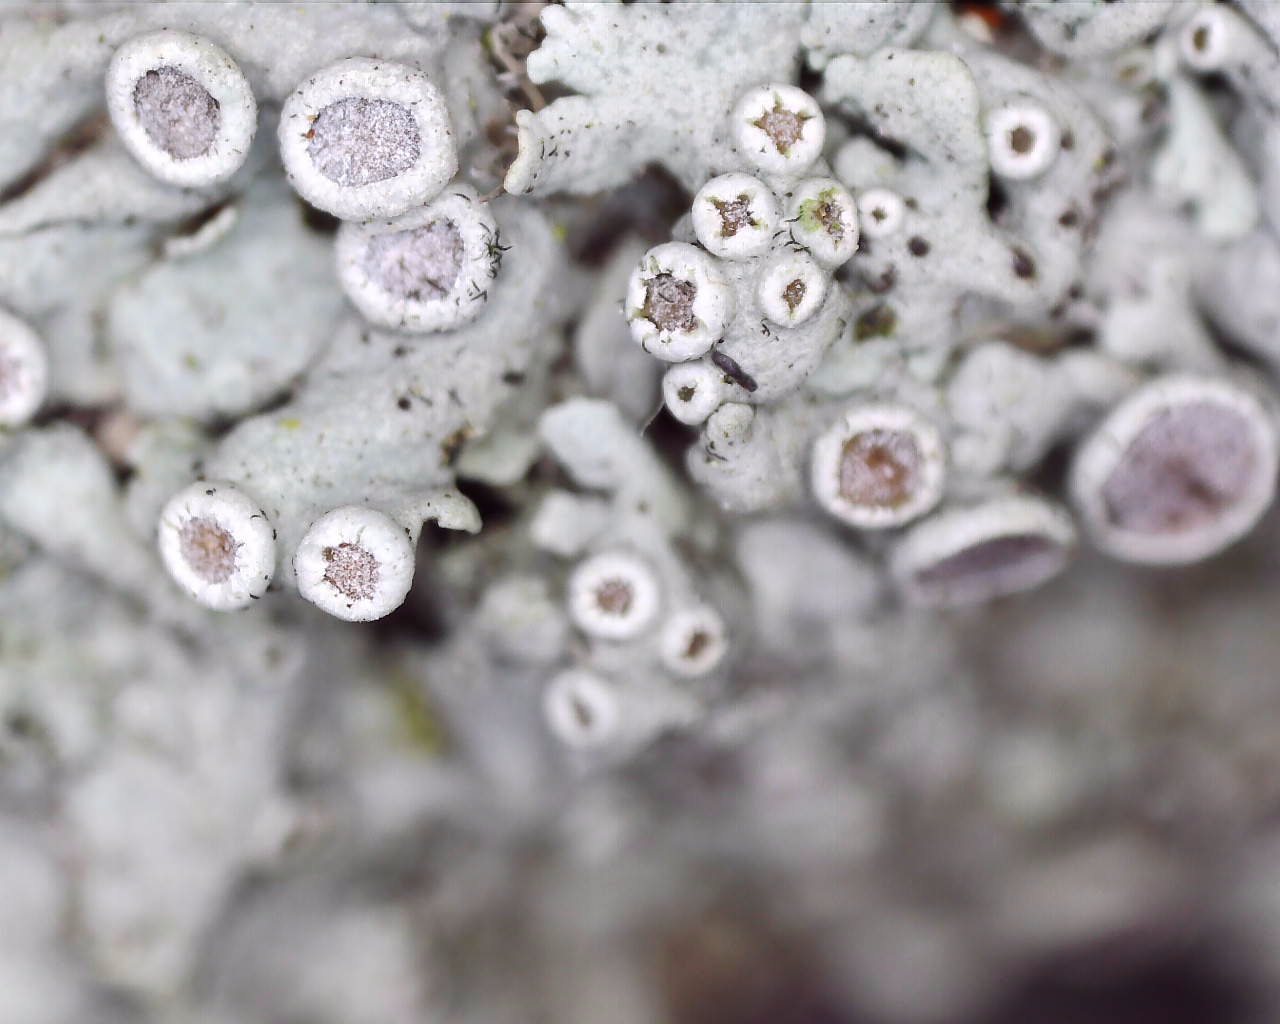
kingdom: Fungi
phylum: Ascomycota
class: Lecanoromycetes
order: Caliciales
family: Physciaceae
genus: Physcia
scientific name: Physcia aipolia
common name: hvidprikket rosetlav
